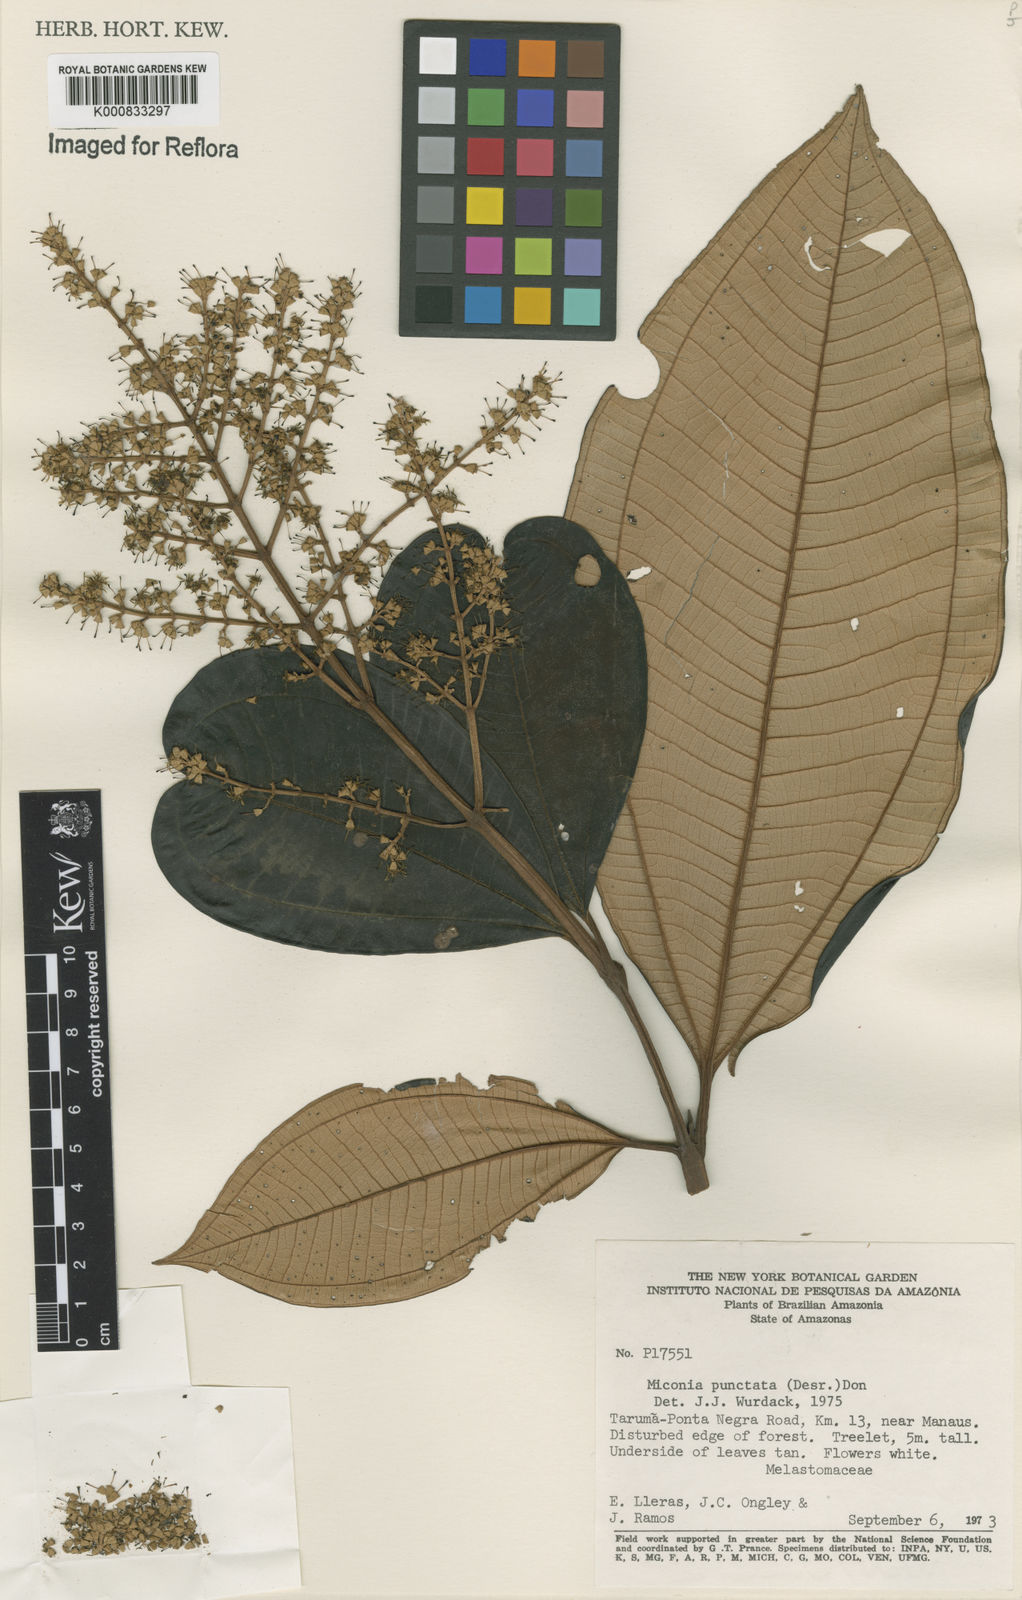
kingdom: Plantae
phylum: Tracheophyta
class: Magnoliopsida
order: Myrtales
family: Melastomataceae
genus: Miconia
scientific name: Miconia punctata
